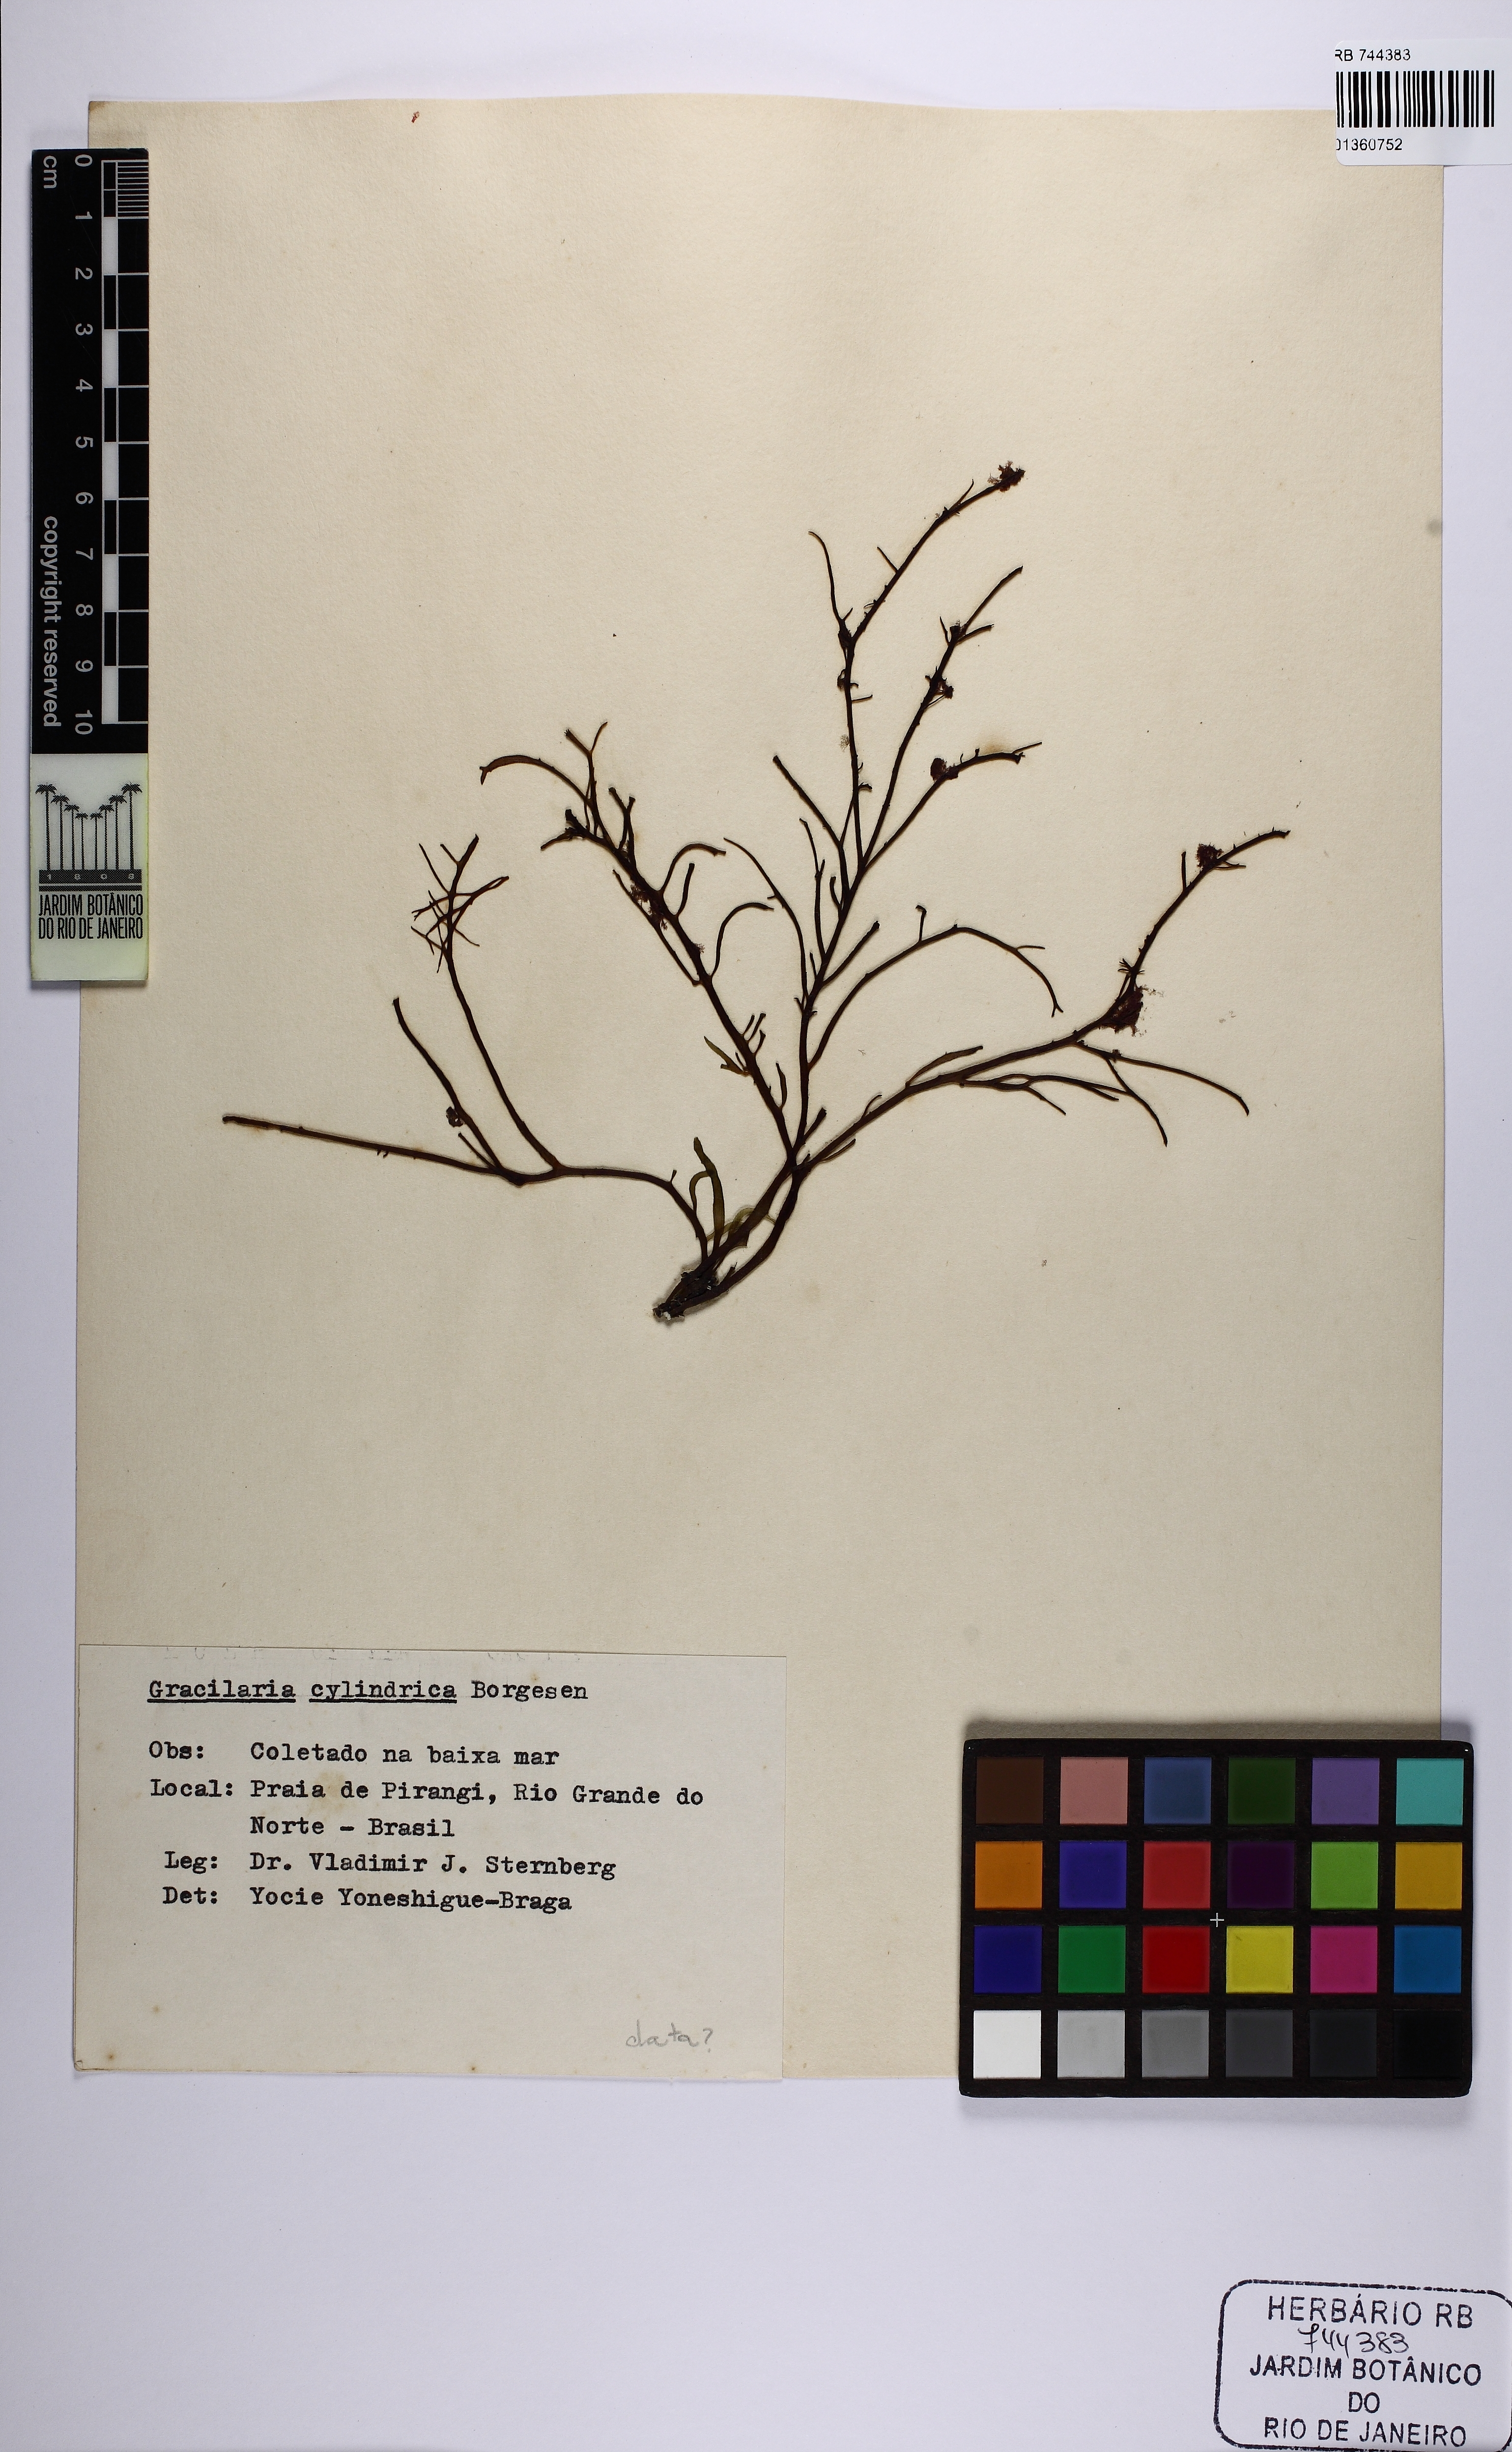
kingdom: Plantae
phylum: Rhodophyta
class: Florideophyceae
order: Gracilariales
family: Gracilariaceae
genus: Gracilaria
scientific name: Gracilaria blodgettii
